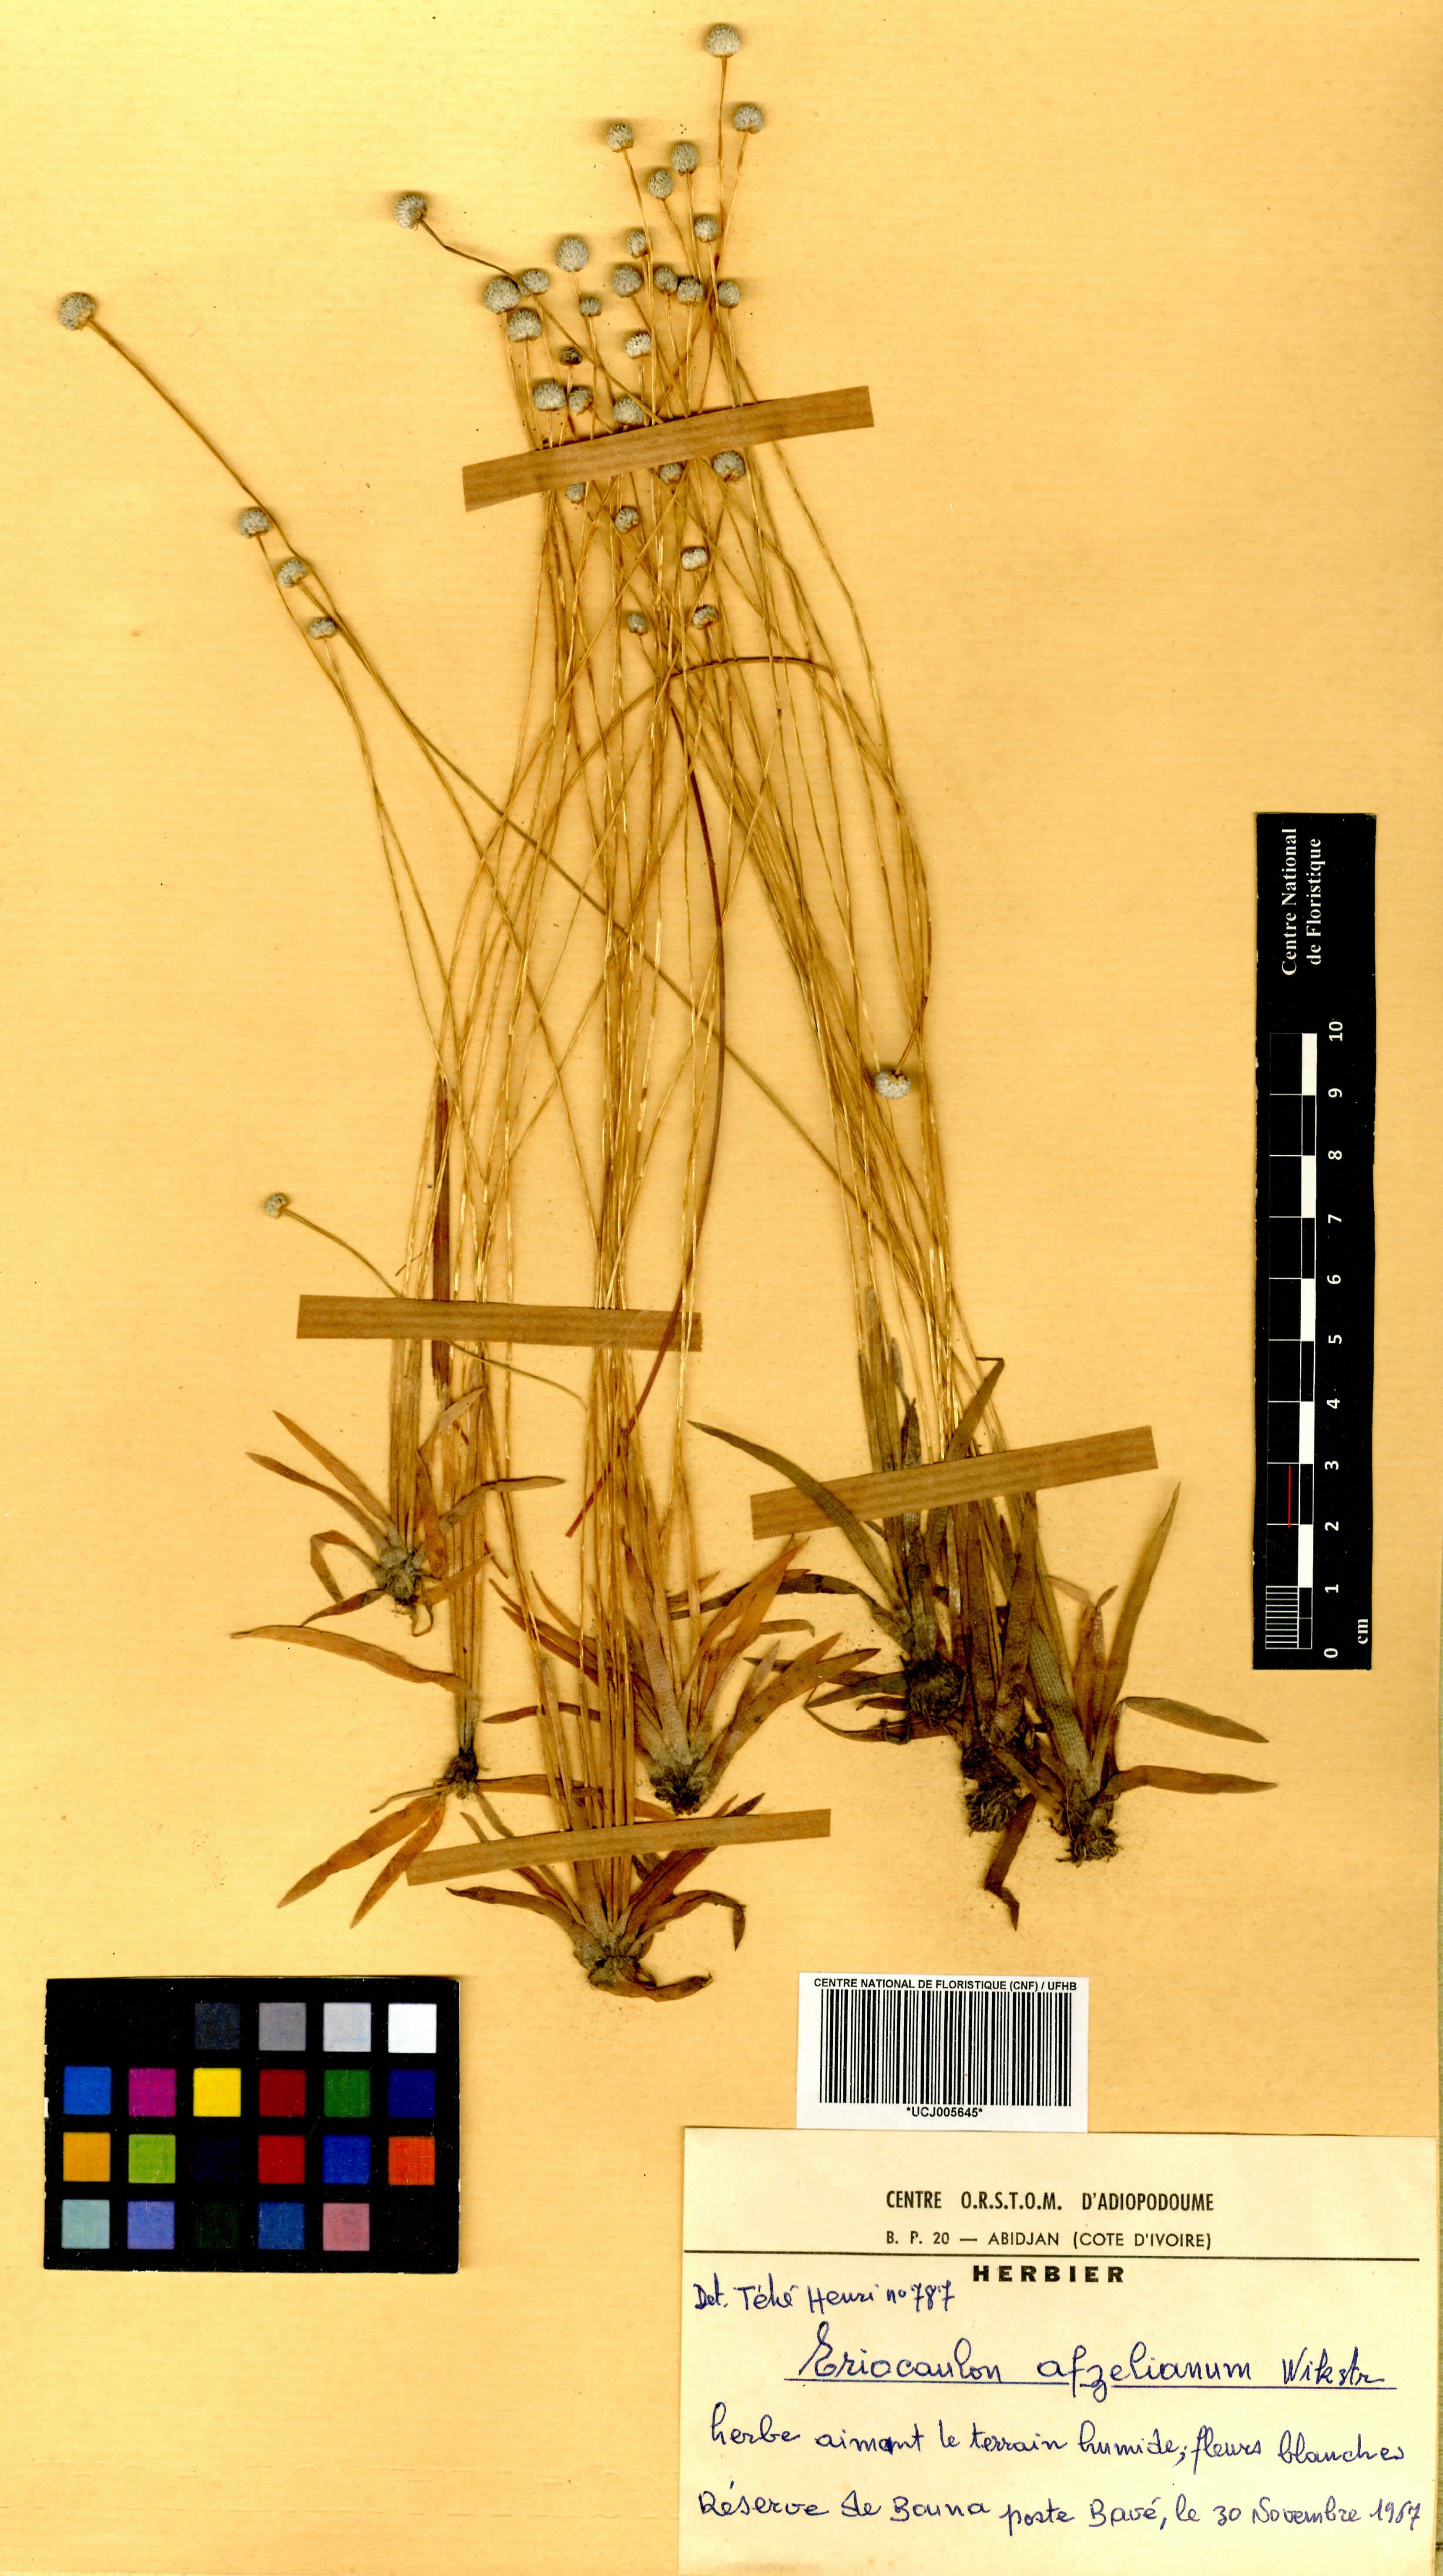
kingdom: Plantae
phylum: Tracheophyta
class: Liliopsida
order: Poales
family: Eriocaulaceae
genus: Eriocaulon
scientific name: Eriocaulon afzelianum
